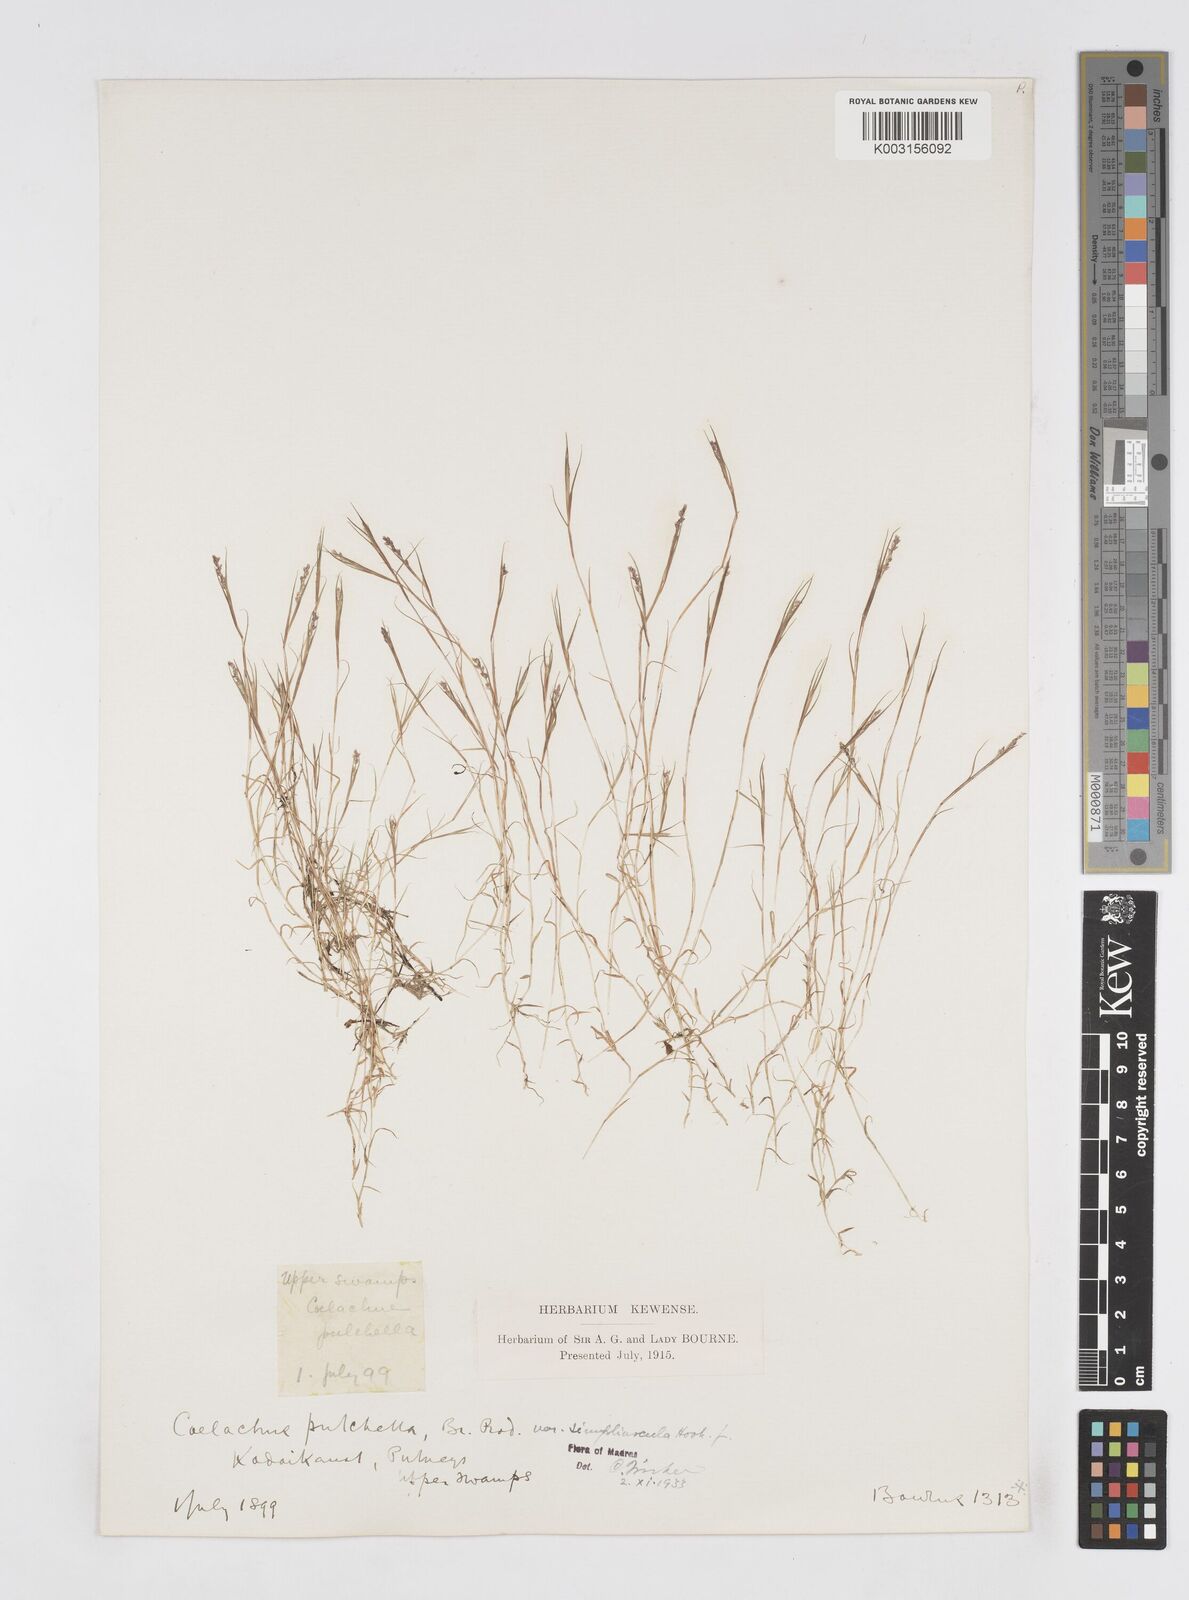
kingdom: Plantae
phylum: Tracheophyta
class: Liliopsida
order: Poales
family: Poaceae
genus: Coelachne
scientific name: Coelachne simpliciuscula
